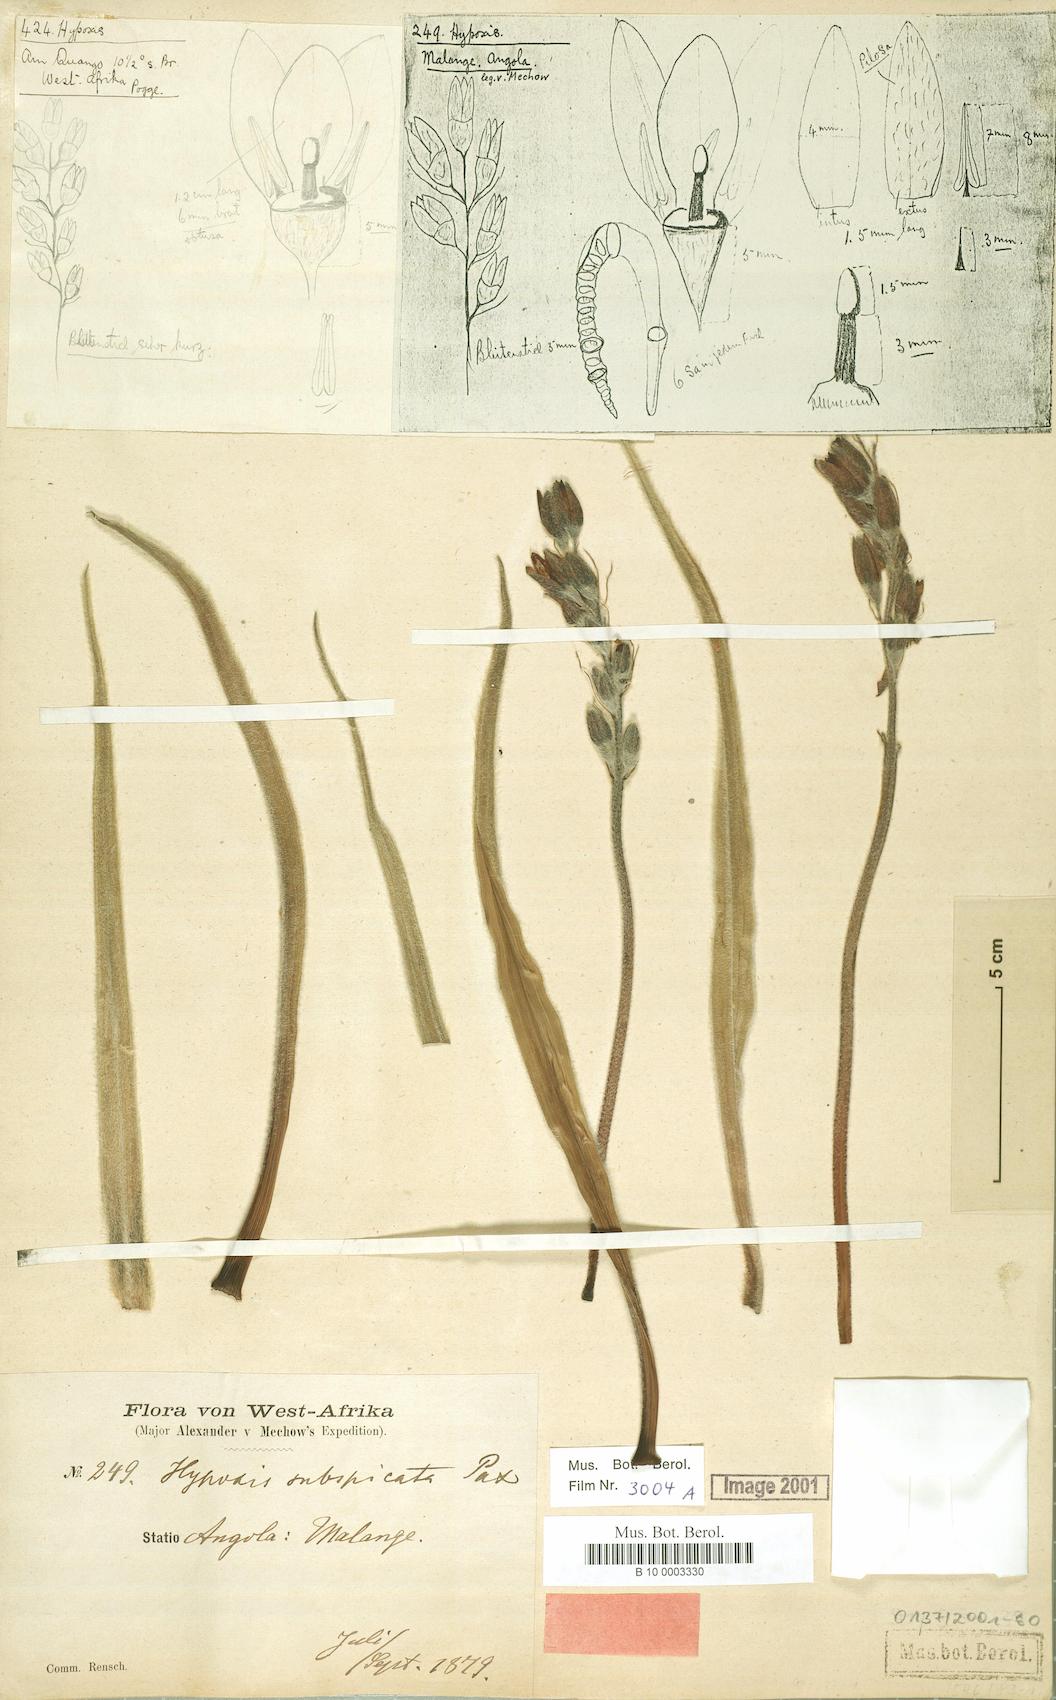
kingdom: Plantae
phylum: Tracheophyta
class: Liliopsida
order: Asparagales
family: Hypoxidaceae
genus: Hypoxis
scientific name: Hypoxis polystachya
